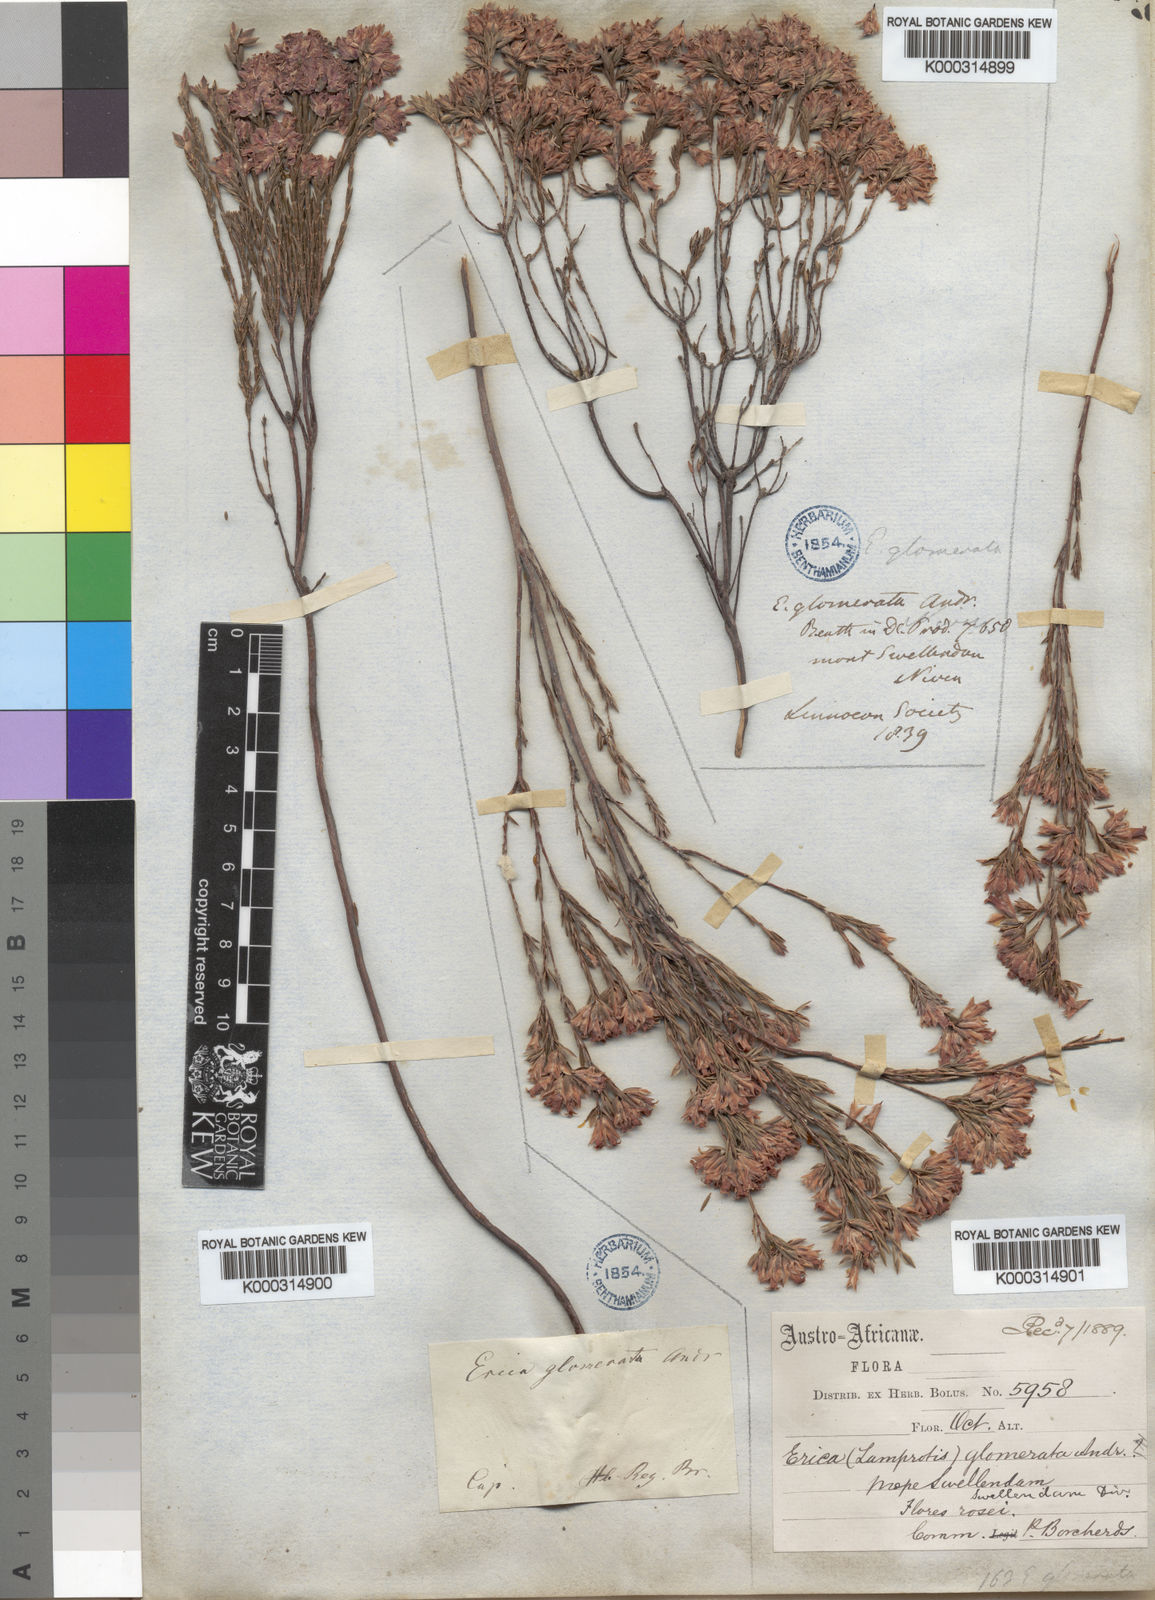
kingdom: Plantae
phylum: Tracheophyta
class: Magnoliopsida
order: Ericales
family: Ericaceae
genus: Erica
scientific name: Erica bracteolaris
